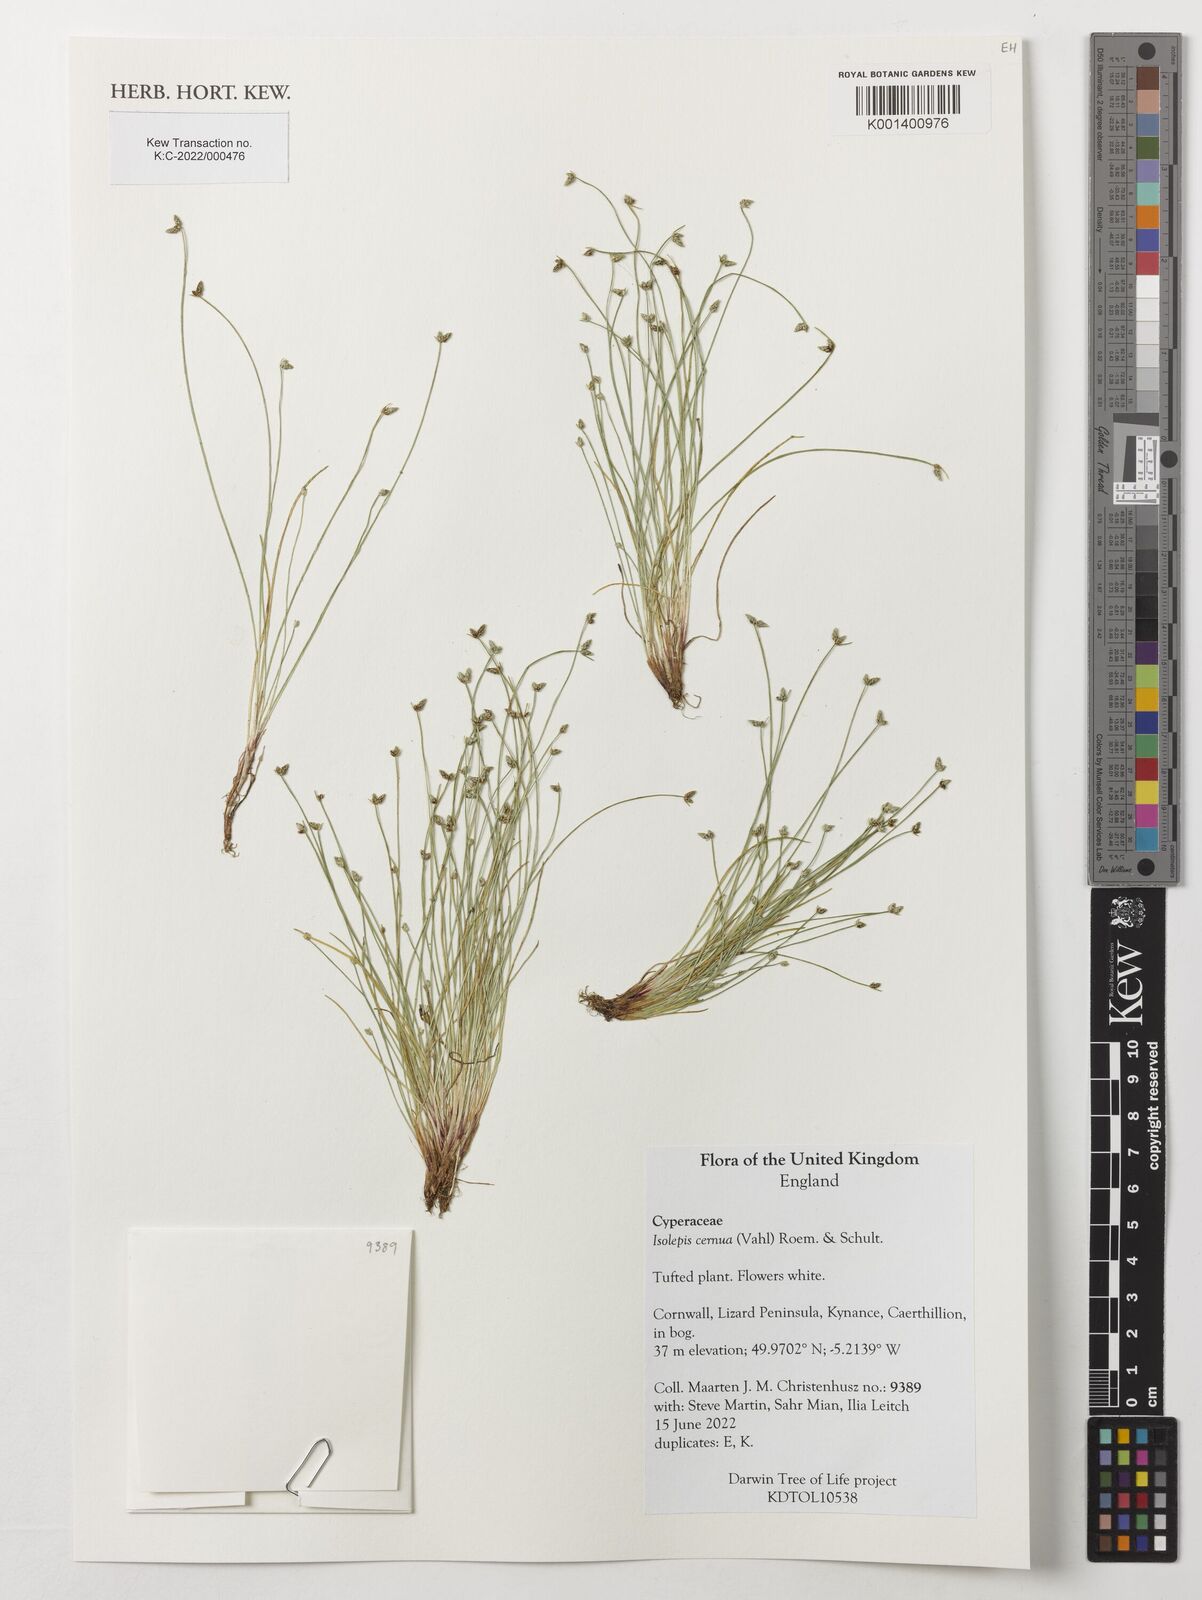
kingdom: Plantae
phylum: Tracheophyta
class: Liliopsida
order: Poales
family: Cyperaceae
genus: Isolepis
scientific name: Isolepis cernua
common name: Slender club-rush
